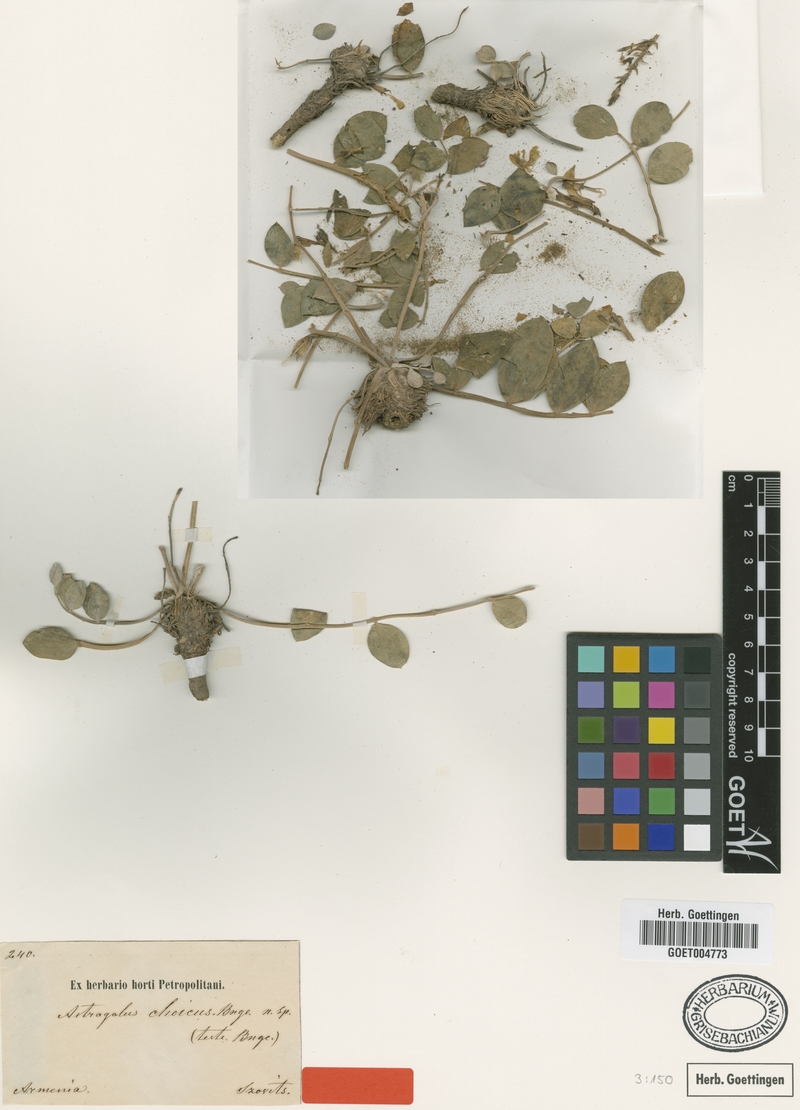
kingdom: Plantae
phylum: Tracheophyta
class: Magnoliopsida
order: Fabales
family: Fabaceae
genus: Astragalus
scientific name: Astragalus latifolius
